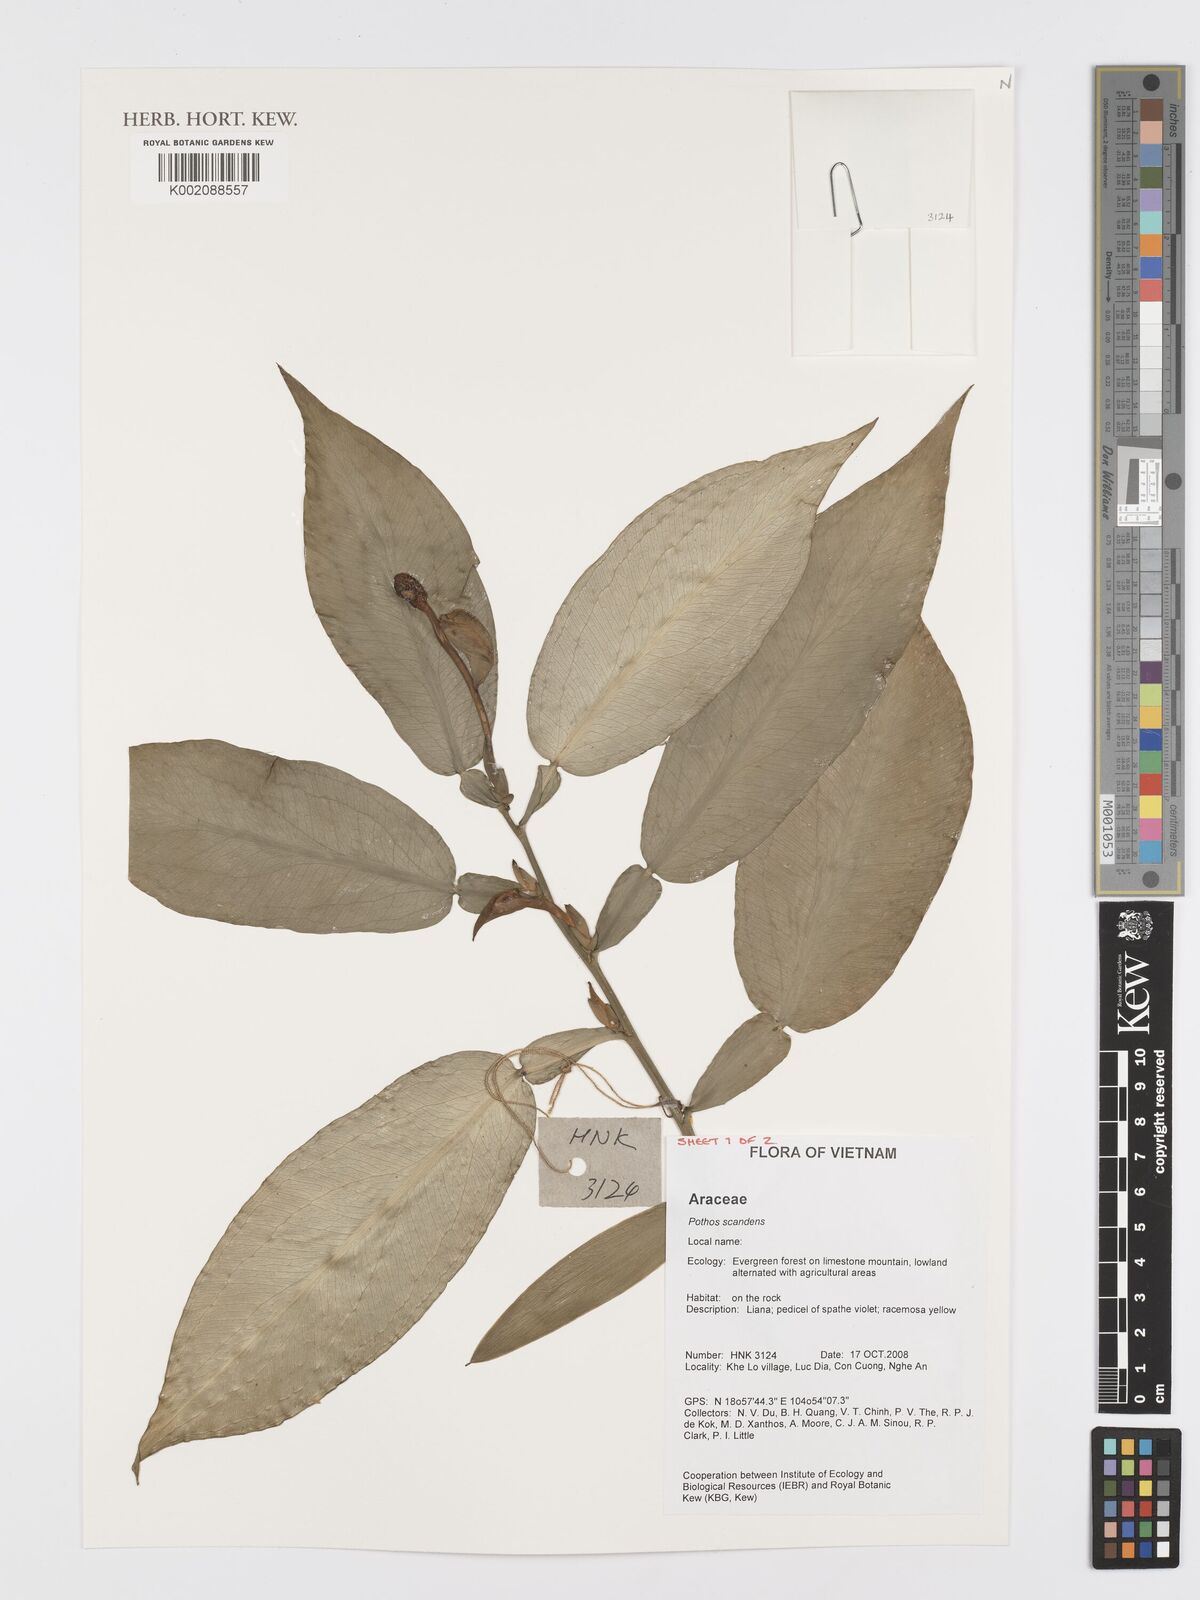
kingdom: Plantae
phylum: Tracheophyta
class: Liliopsida
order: Alismatales
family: Araceae
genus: Pothos
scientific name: Pothos scandens
